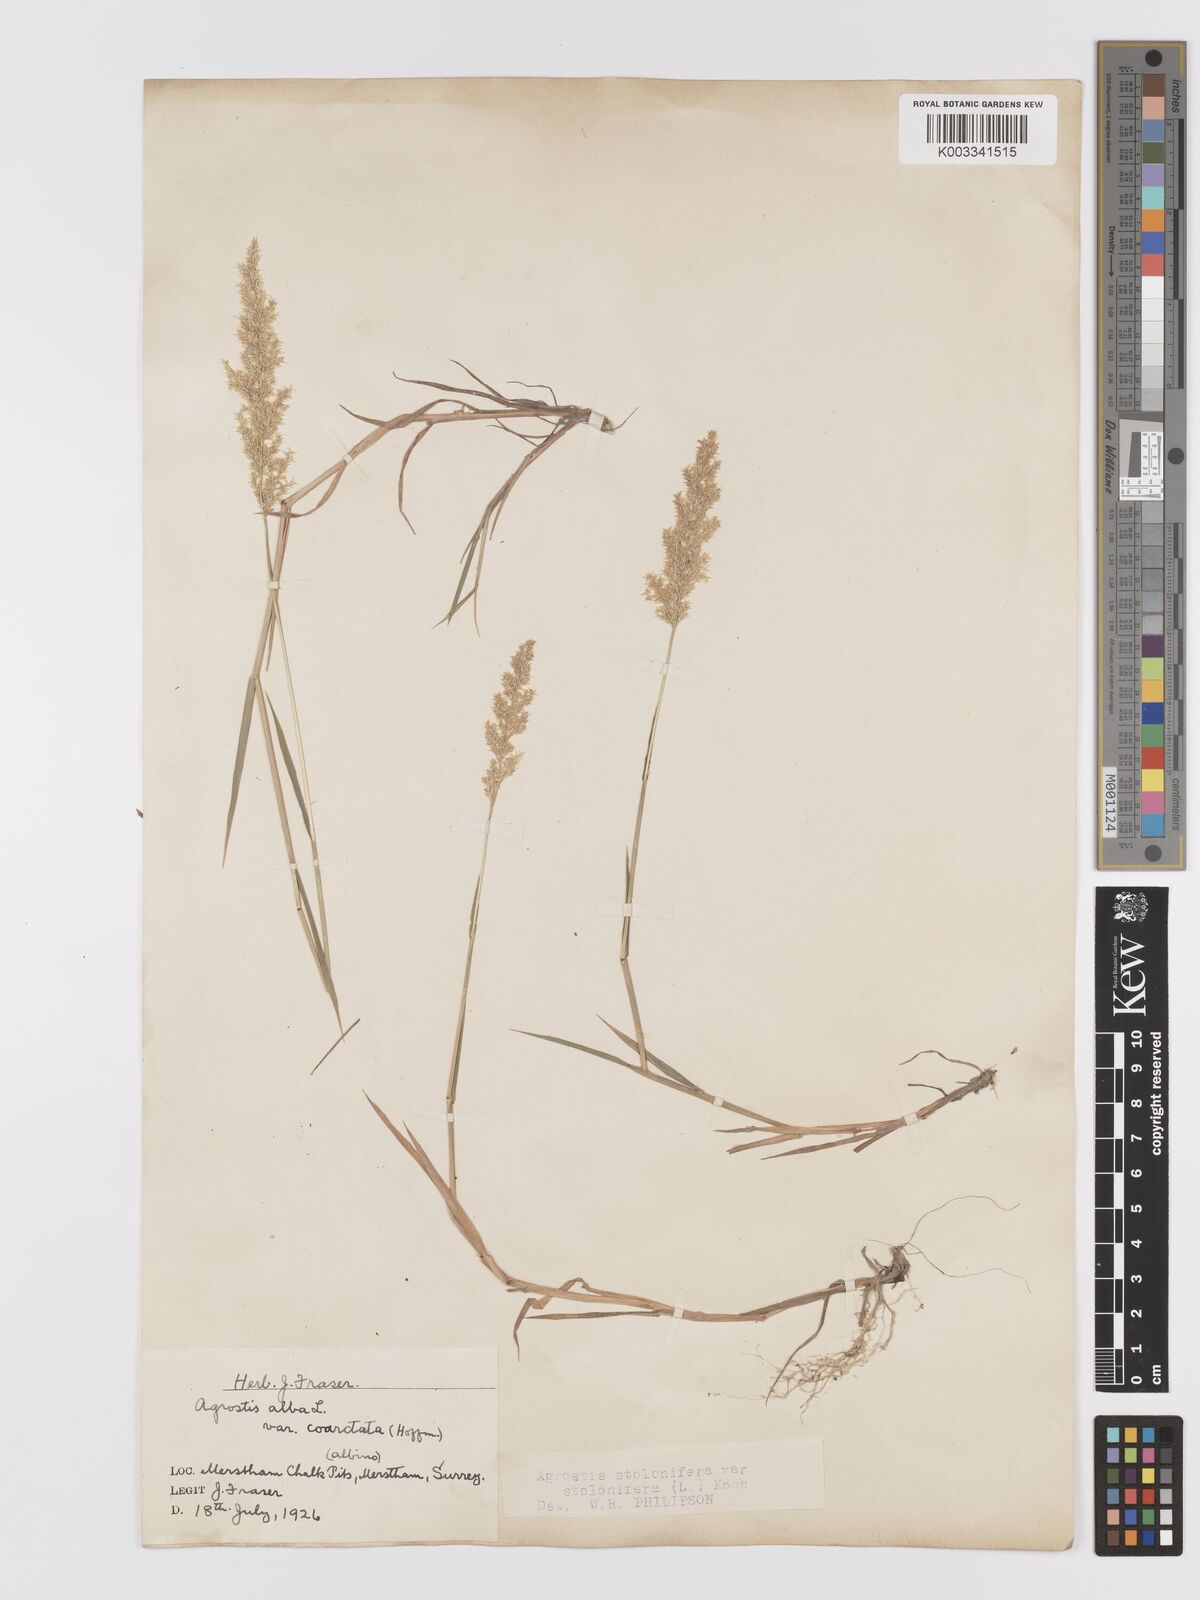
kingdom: Plantae
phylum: Tracheophyta
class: Liliopsida
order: Poales
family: Poaceae
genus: Agrostis
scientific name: Agrostis stolonifera
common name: Creeping bentgrass
